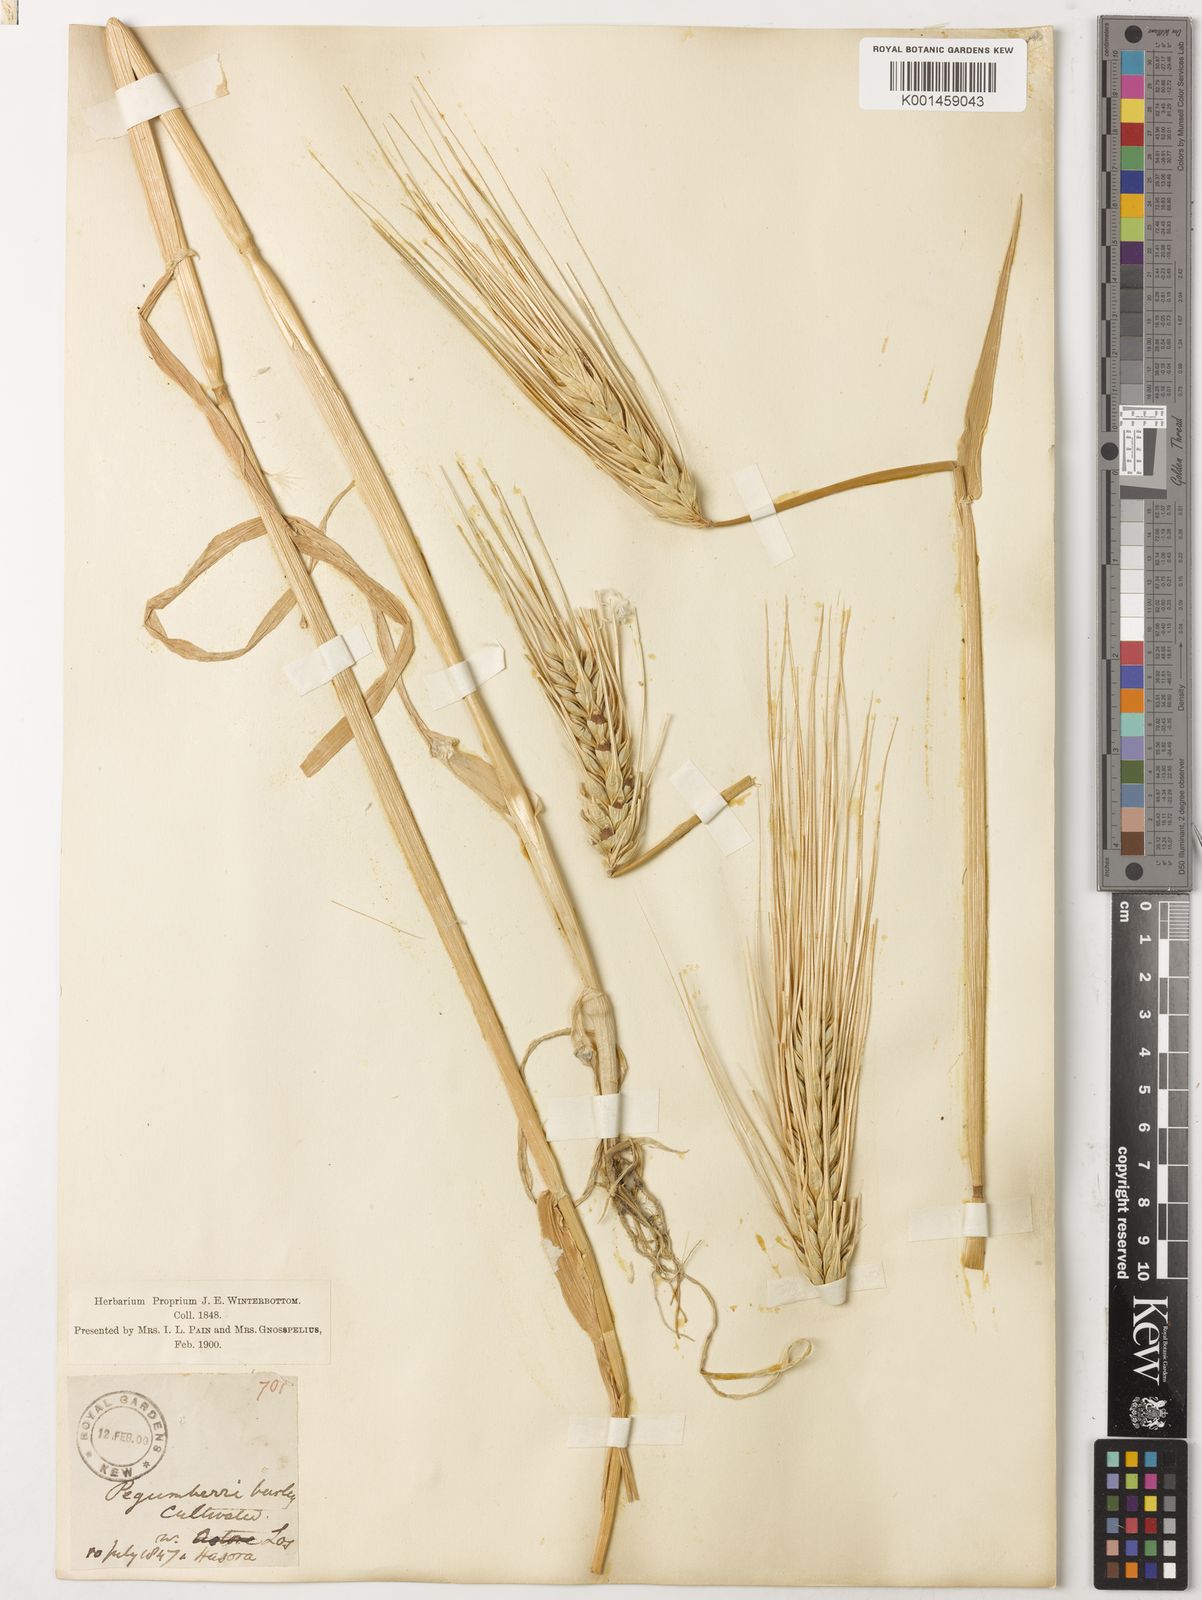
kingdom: Plantae
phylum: Tracheophyta
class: Liliopsida
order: Poales
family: Poaceae
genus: Hordeum
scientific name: Hordeum vulgare
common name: Common barley
